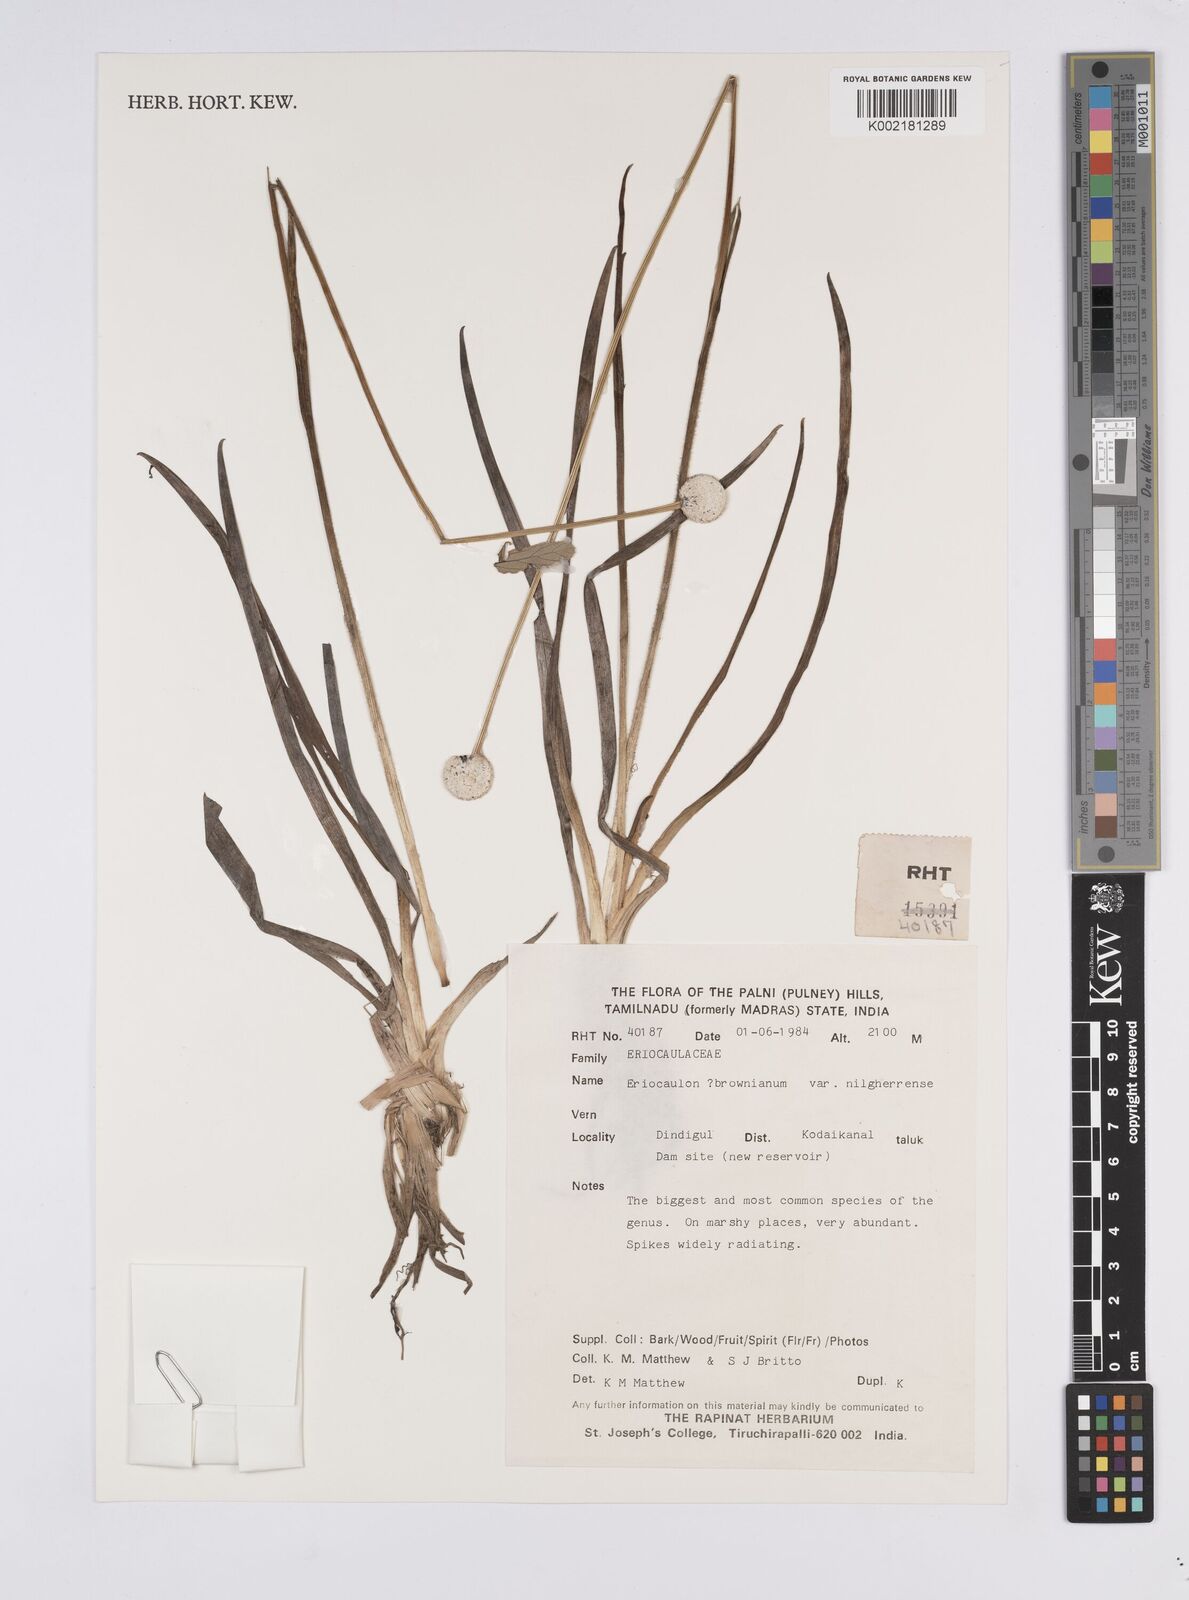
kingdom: Plantae
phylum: Tracheophyta
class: Liliopsida
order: Poales
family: Eriocaulaceae
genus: Eriocaulon
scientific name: Eriocaulon brownianum
